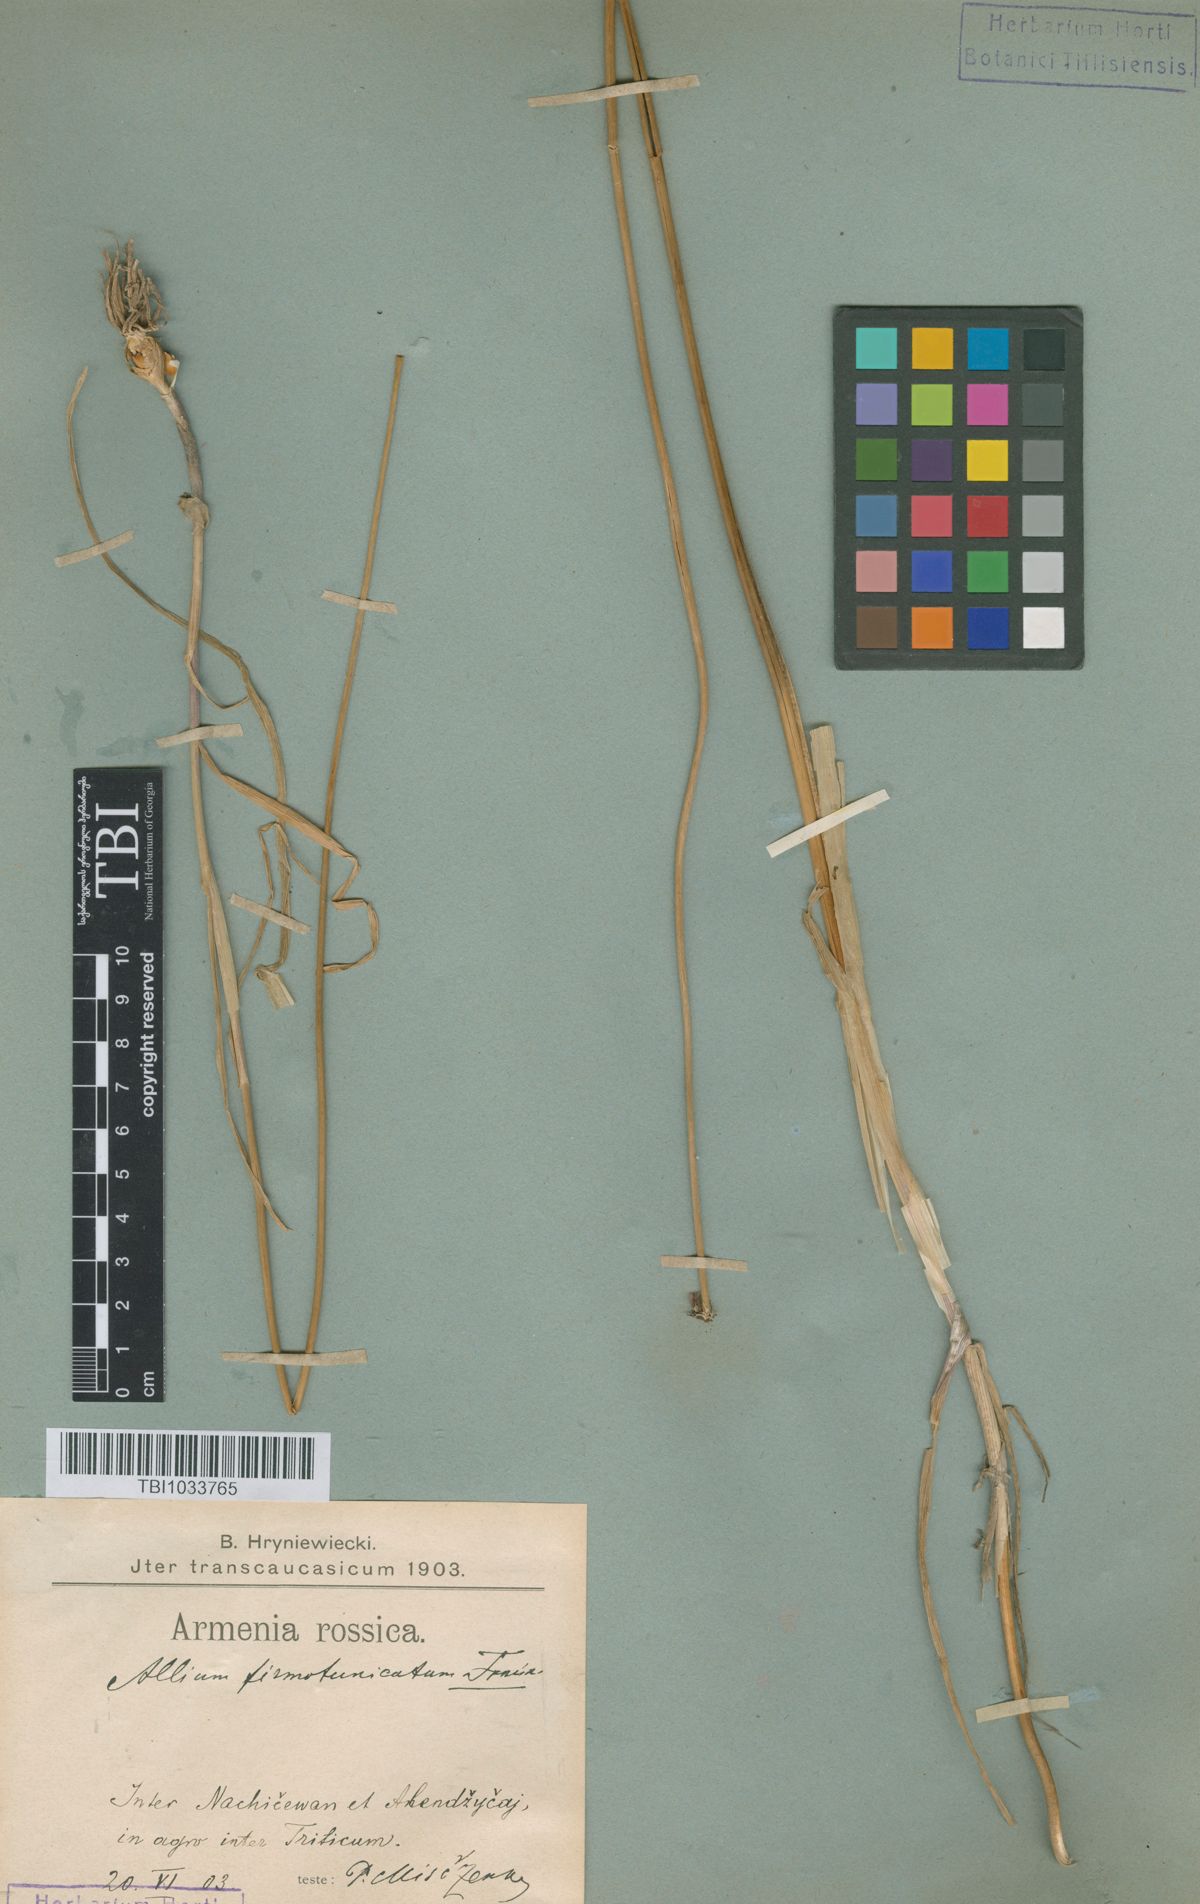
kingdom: Plantae
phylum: Tracheophyta
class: Liliopsida
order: Asparagales
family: Amaryllidaceae
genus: Allium
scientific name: Allium ampeloprasum
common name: Wild leek
